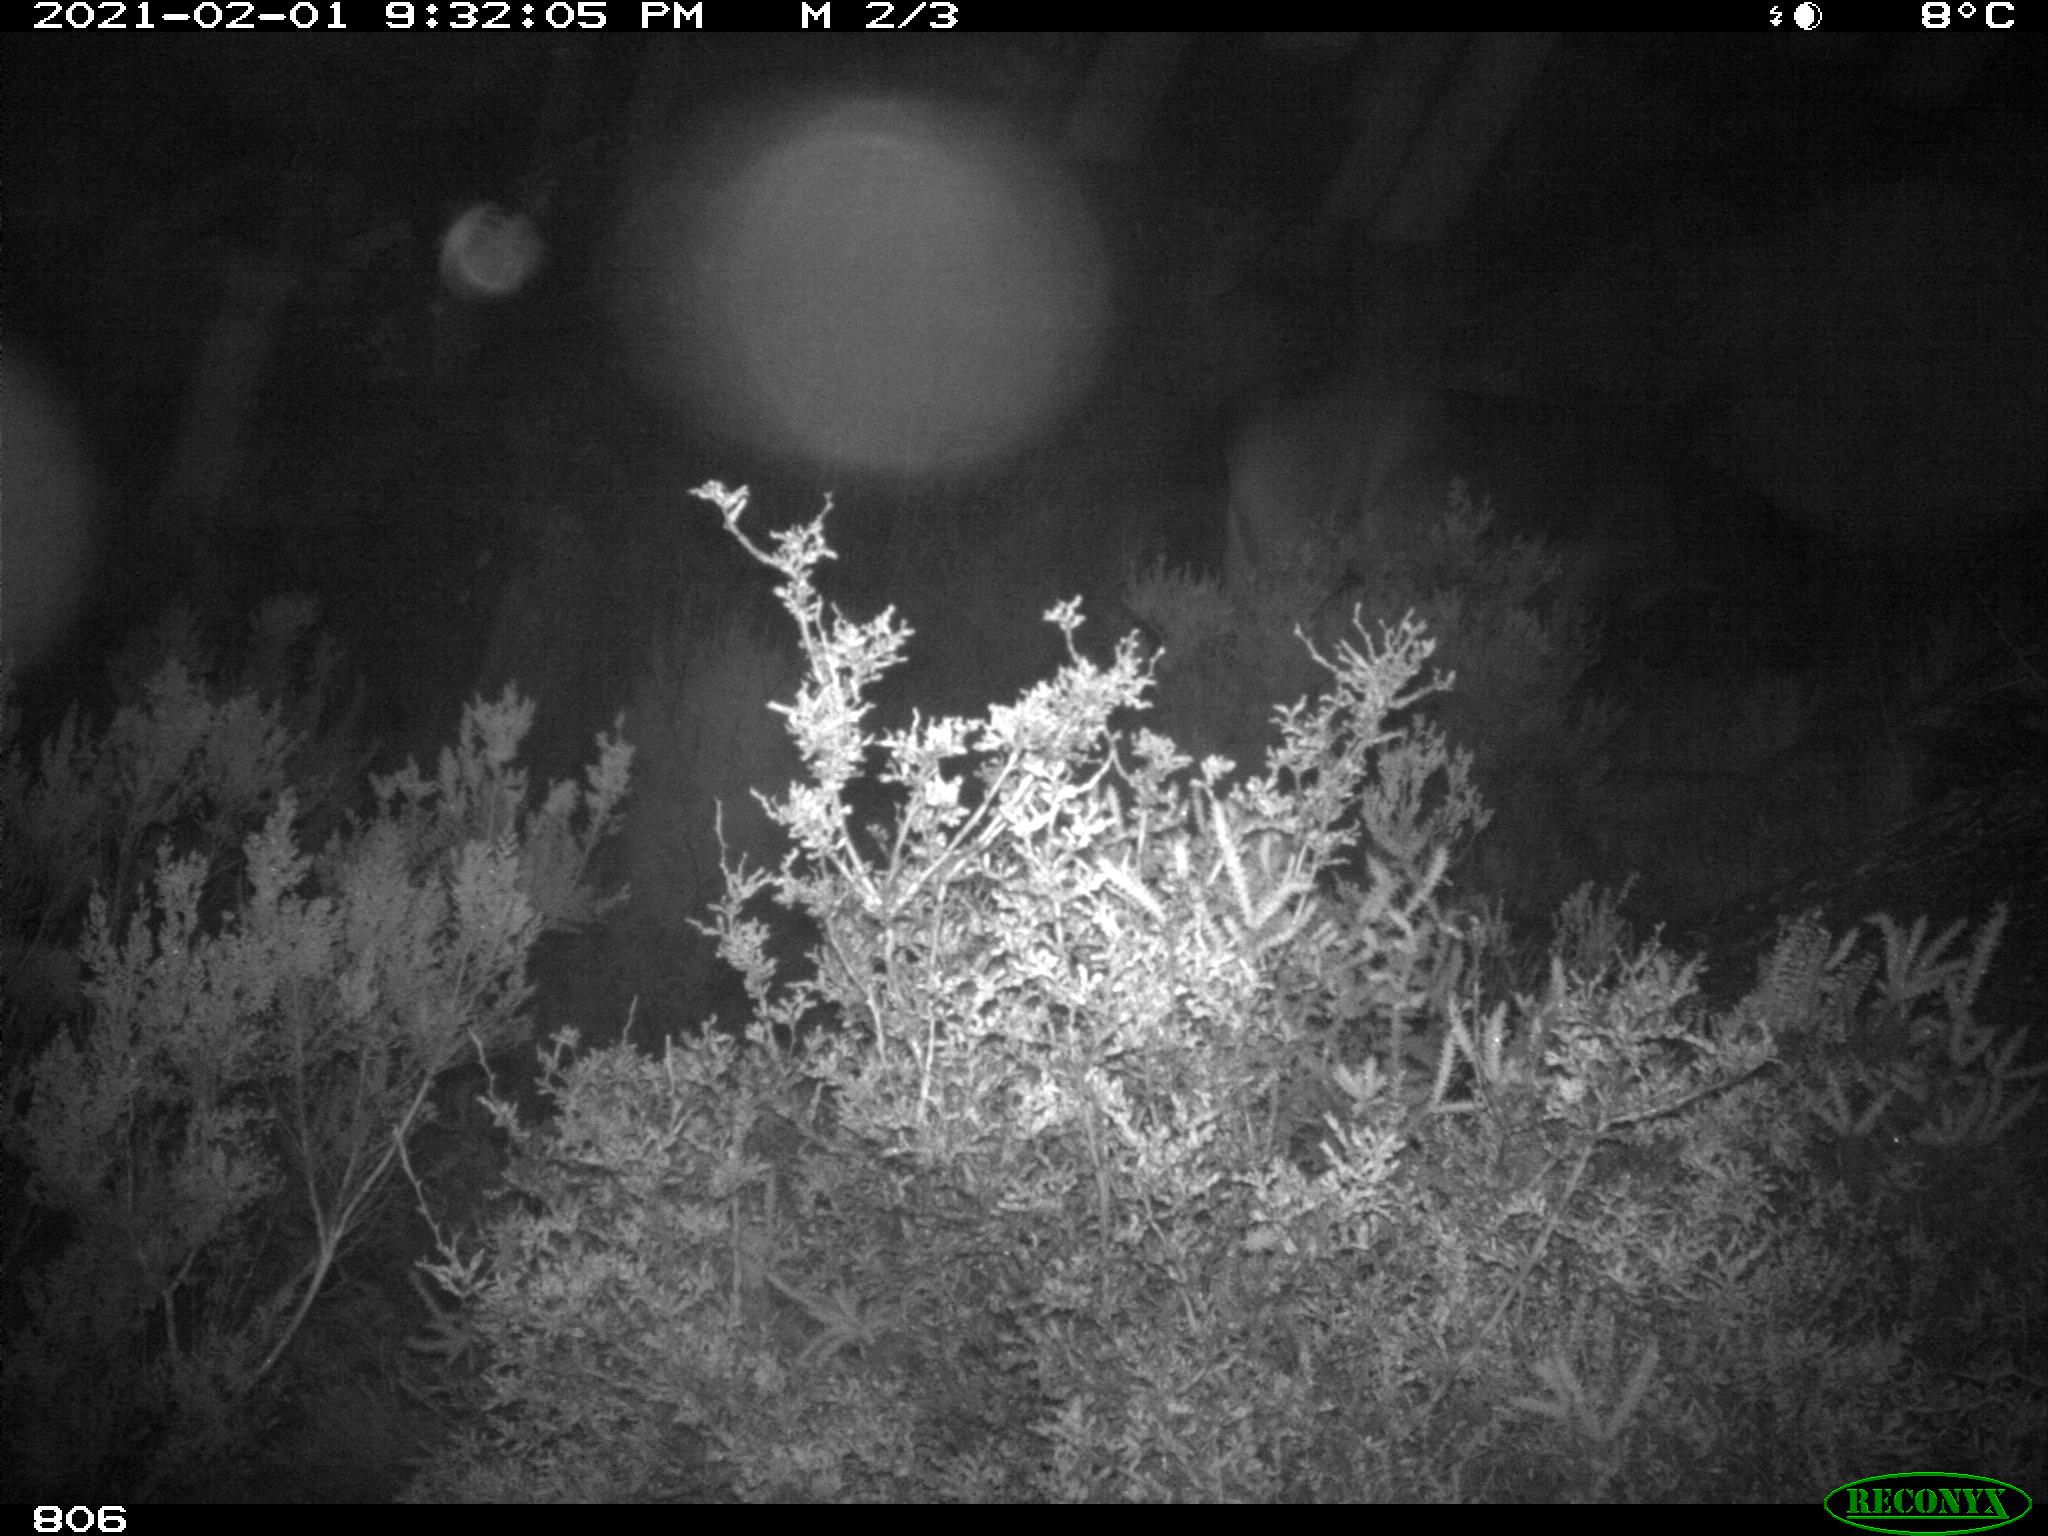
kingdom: Animalia
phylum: Chordata
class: Mammalia
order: Perissodactyla
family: Equidae
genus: Equus
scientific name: Equus caballus
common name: Horse
